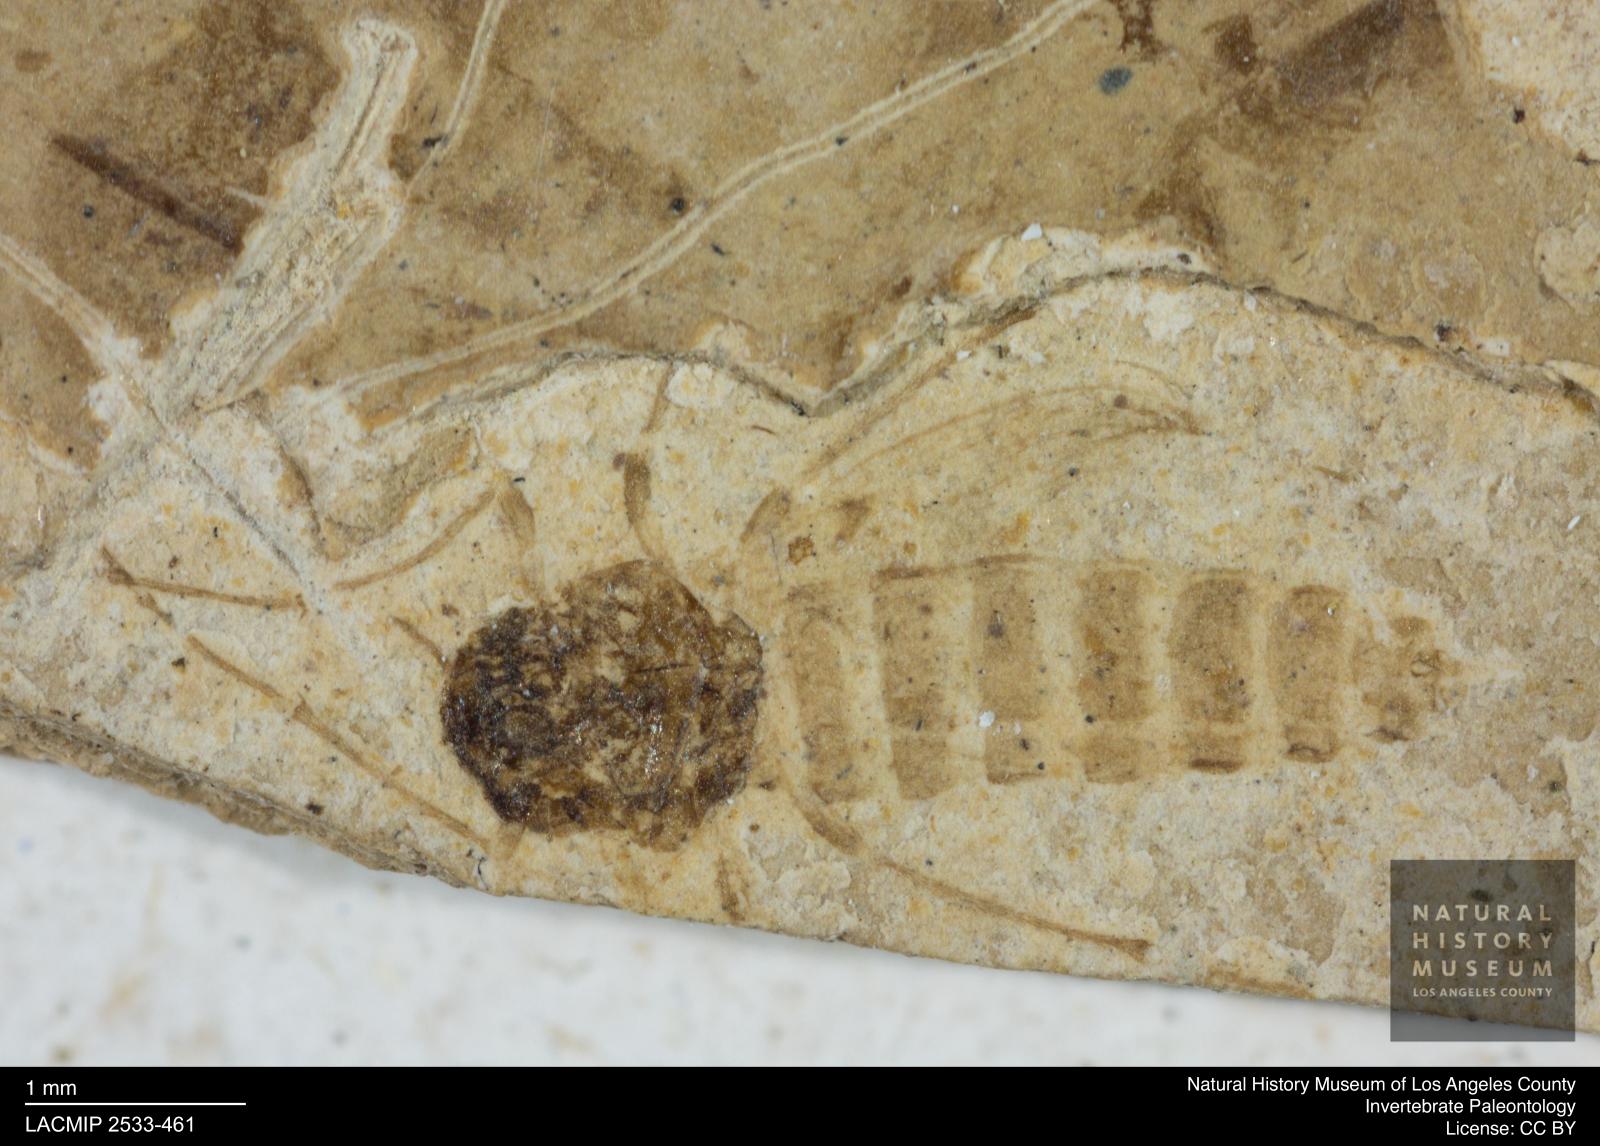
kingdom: Animalia
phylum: Arthropoda
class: Insecta
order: Diptera
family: Chironomidae
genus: Tanypus
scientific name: Tanypus thienemanni
